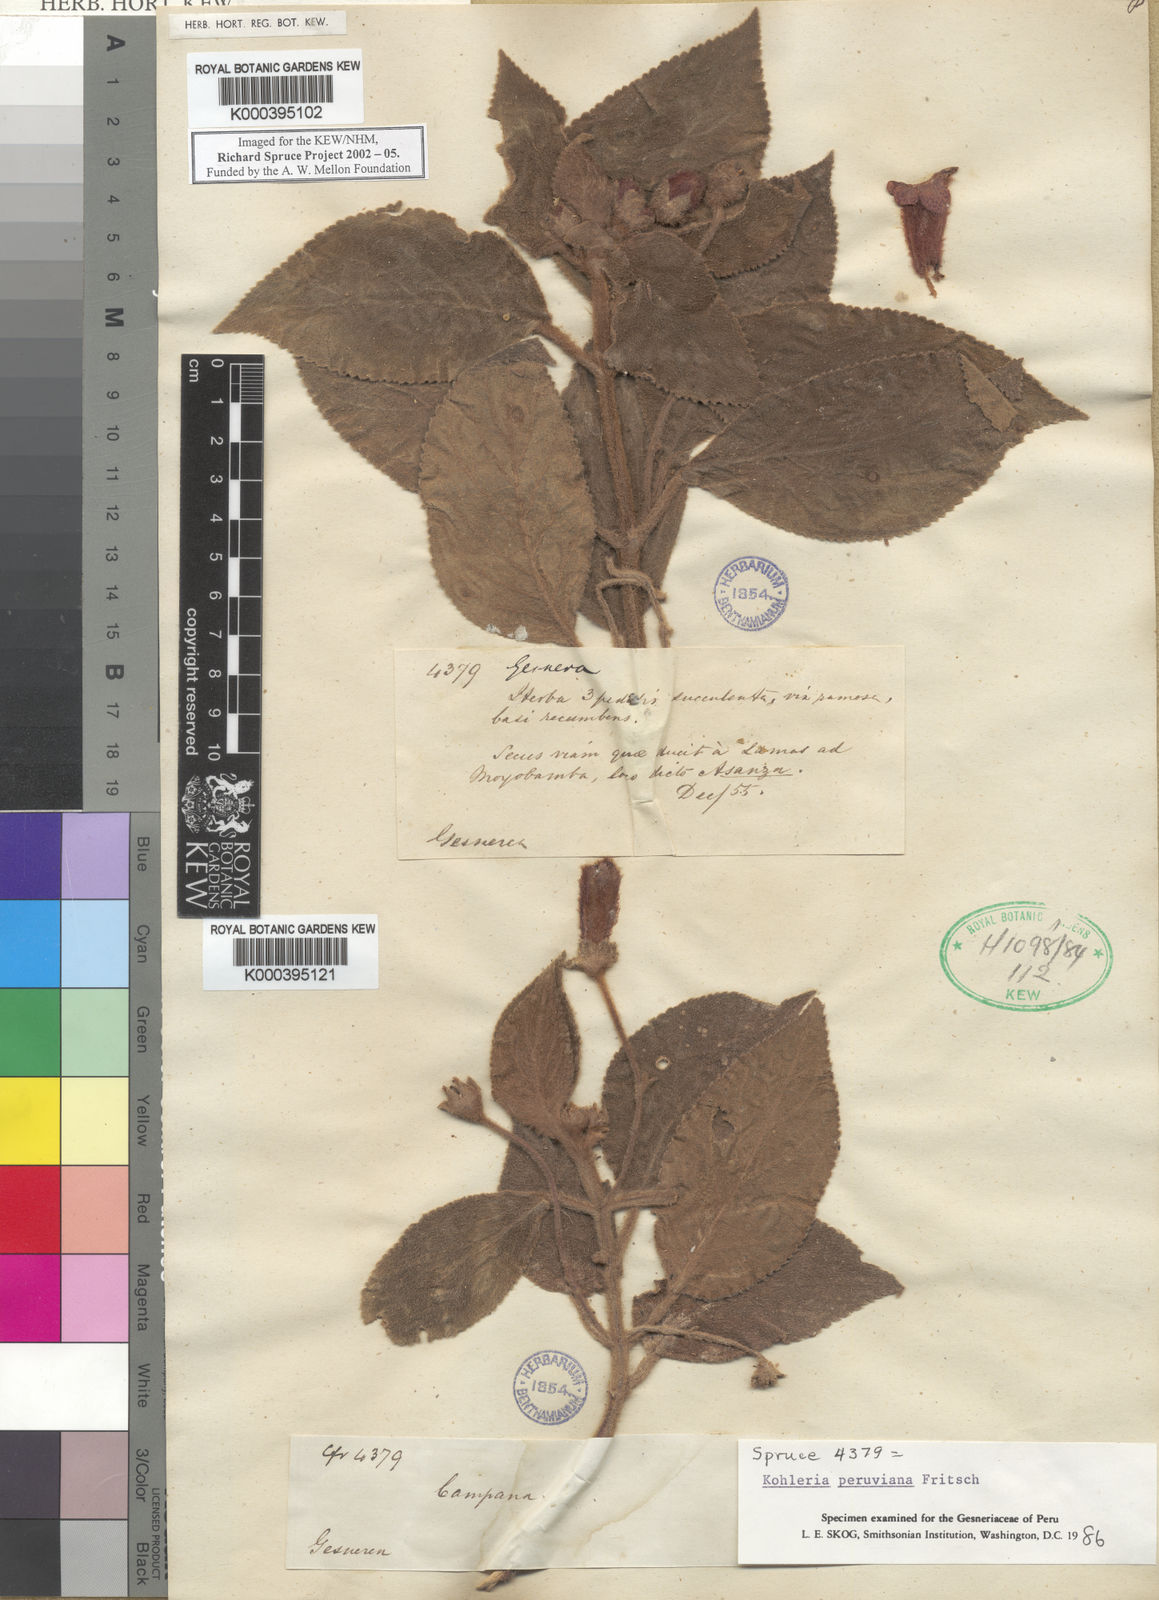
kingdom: Plantae
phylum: Tracheophyta
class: Magnoliopsida
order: Lamiales
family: Gesneriaceae
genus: Kohleria
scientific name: Kohleria peruviana
